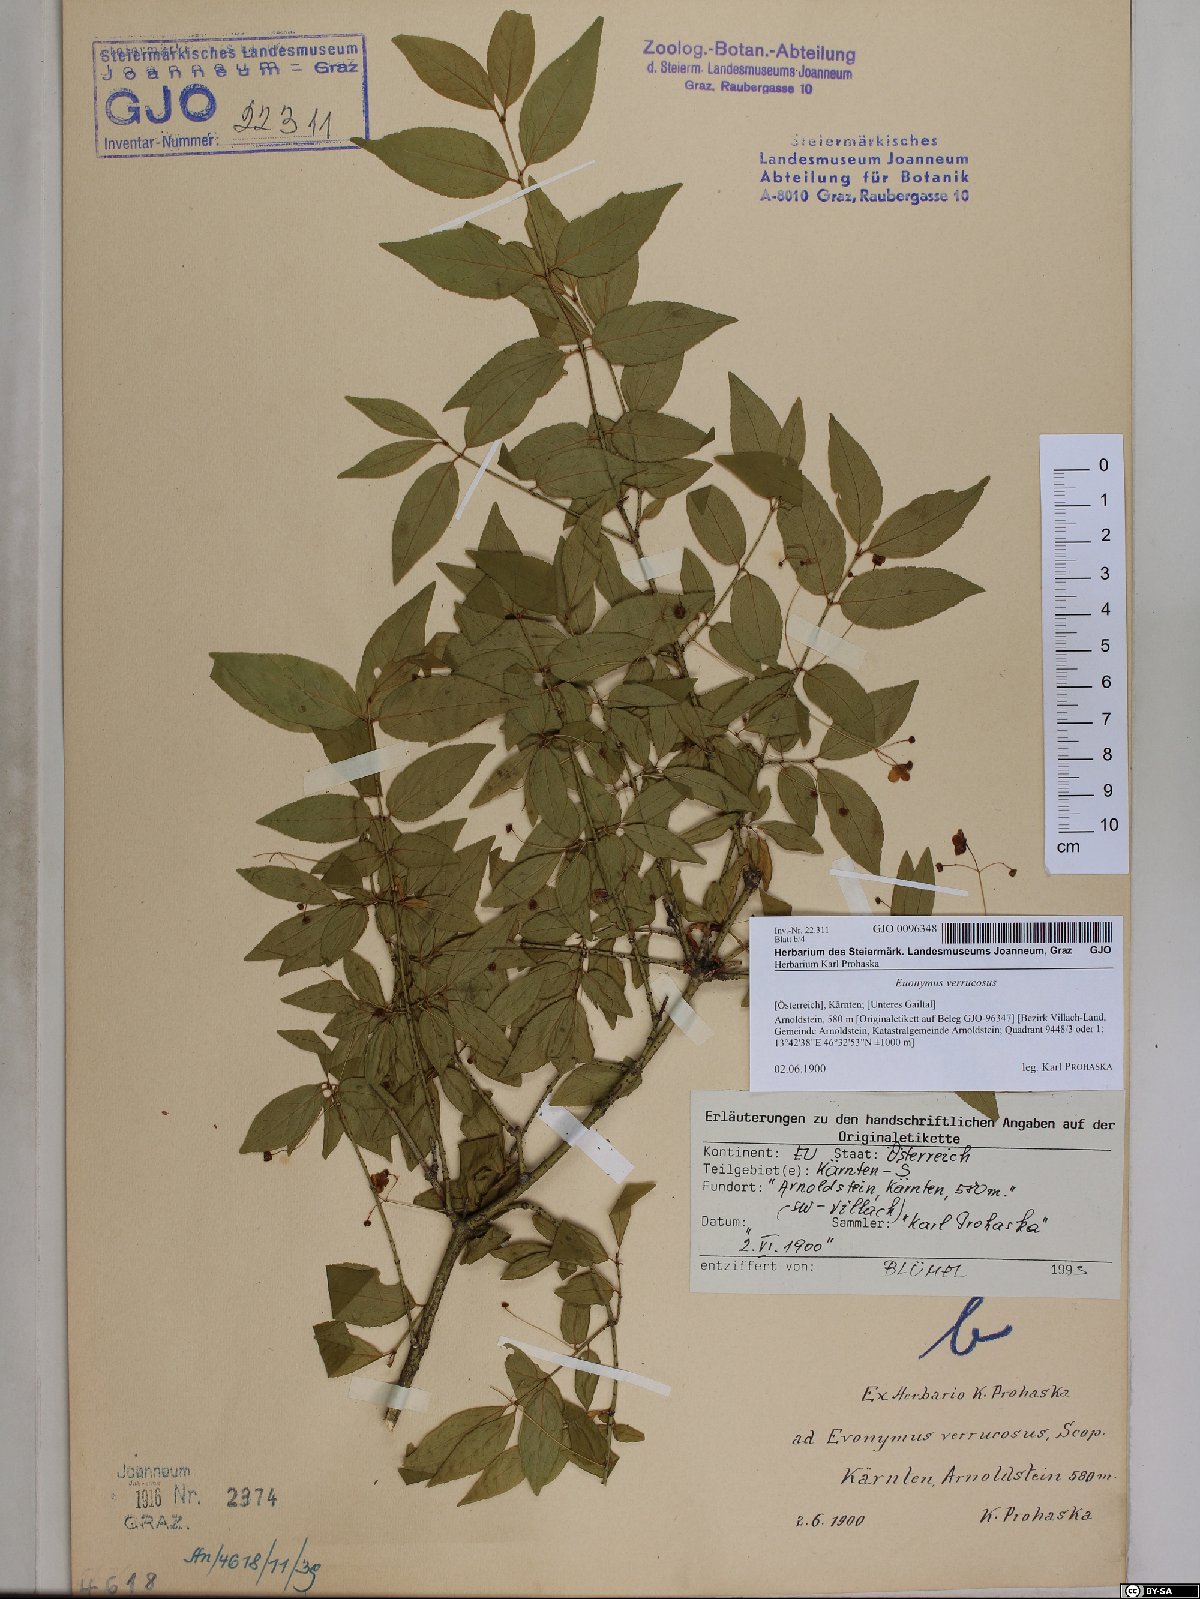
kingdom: Plantae
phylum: Tracheophyta
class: Magnoliopsida
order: Celastrales
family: Celastraceae
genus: Euonymus
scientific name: Euonymus verrucosus
